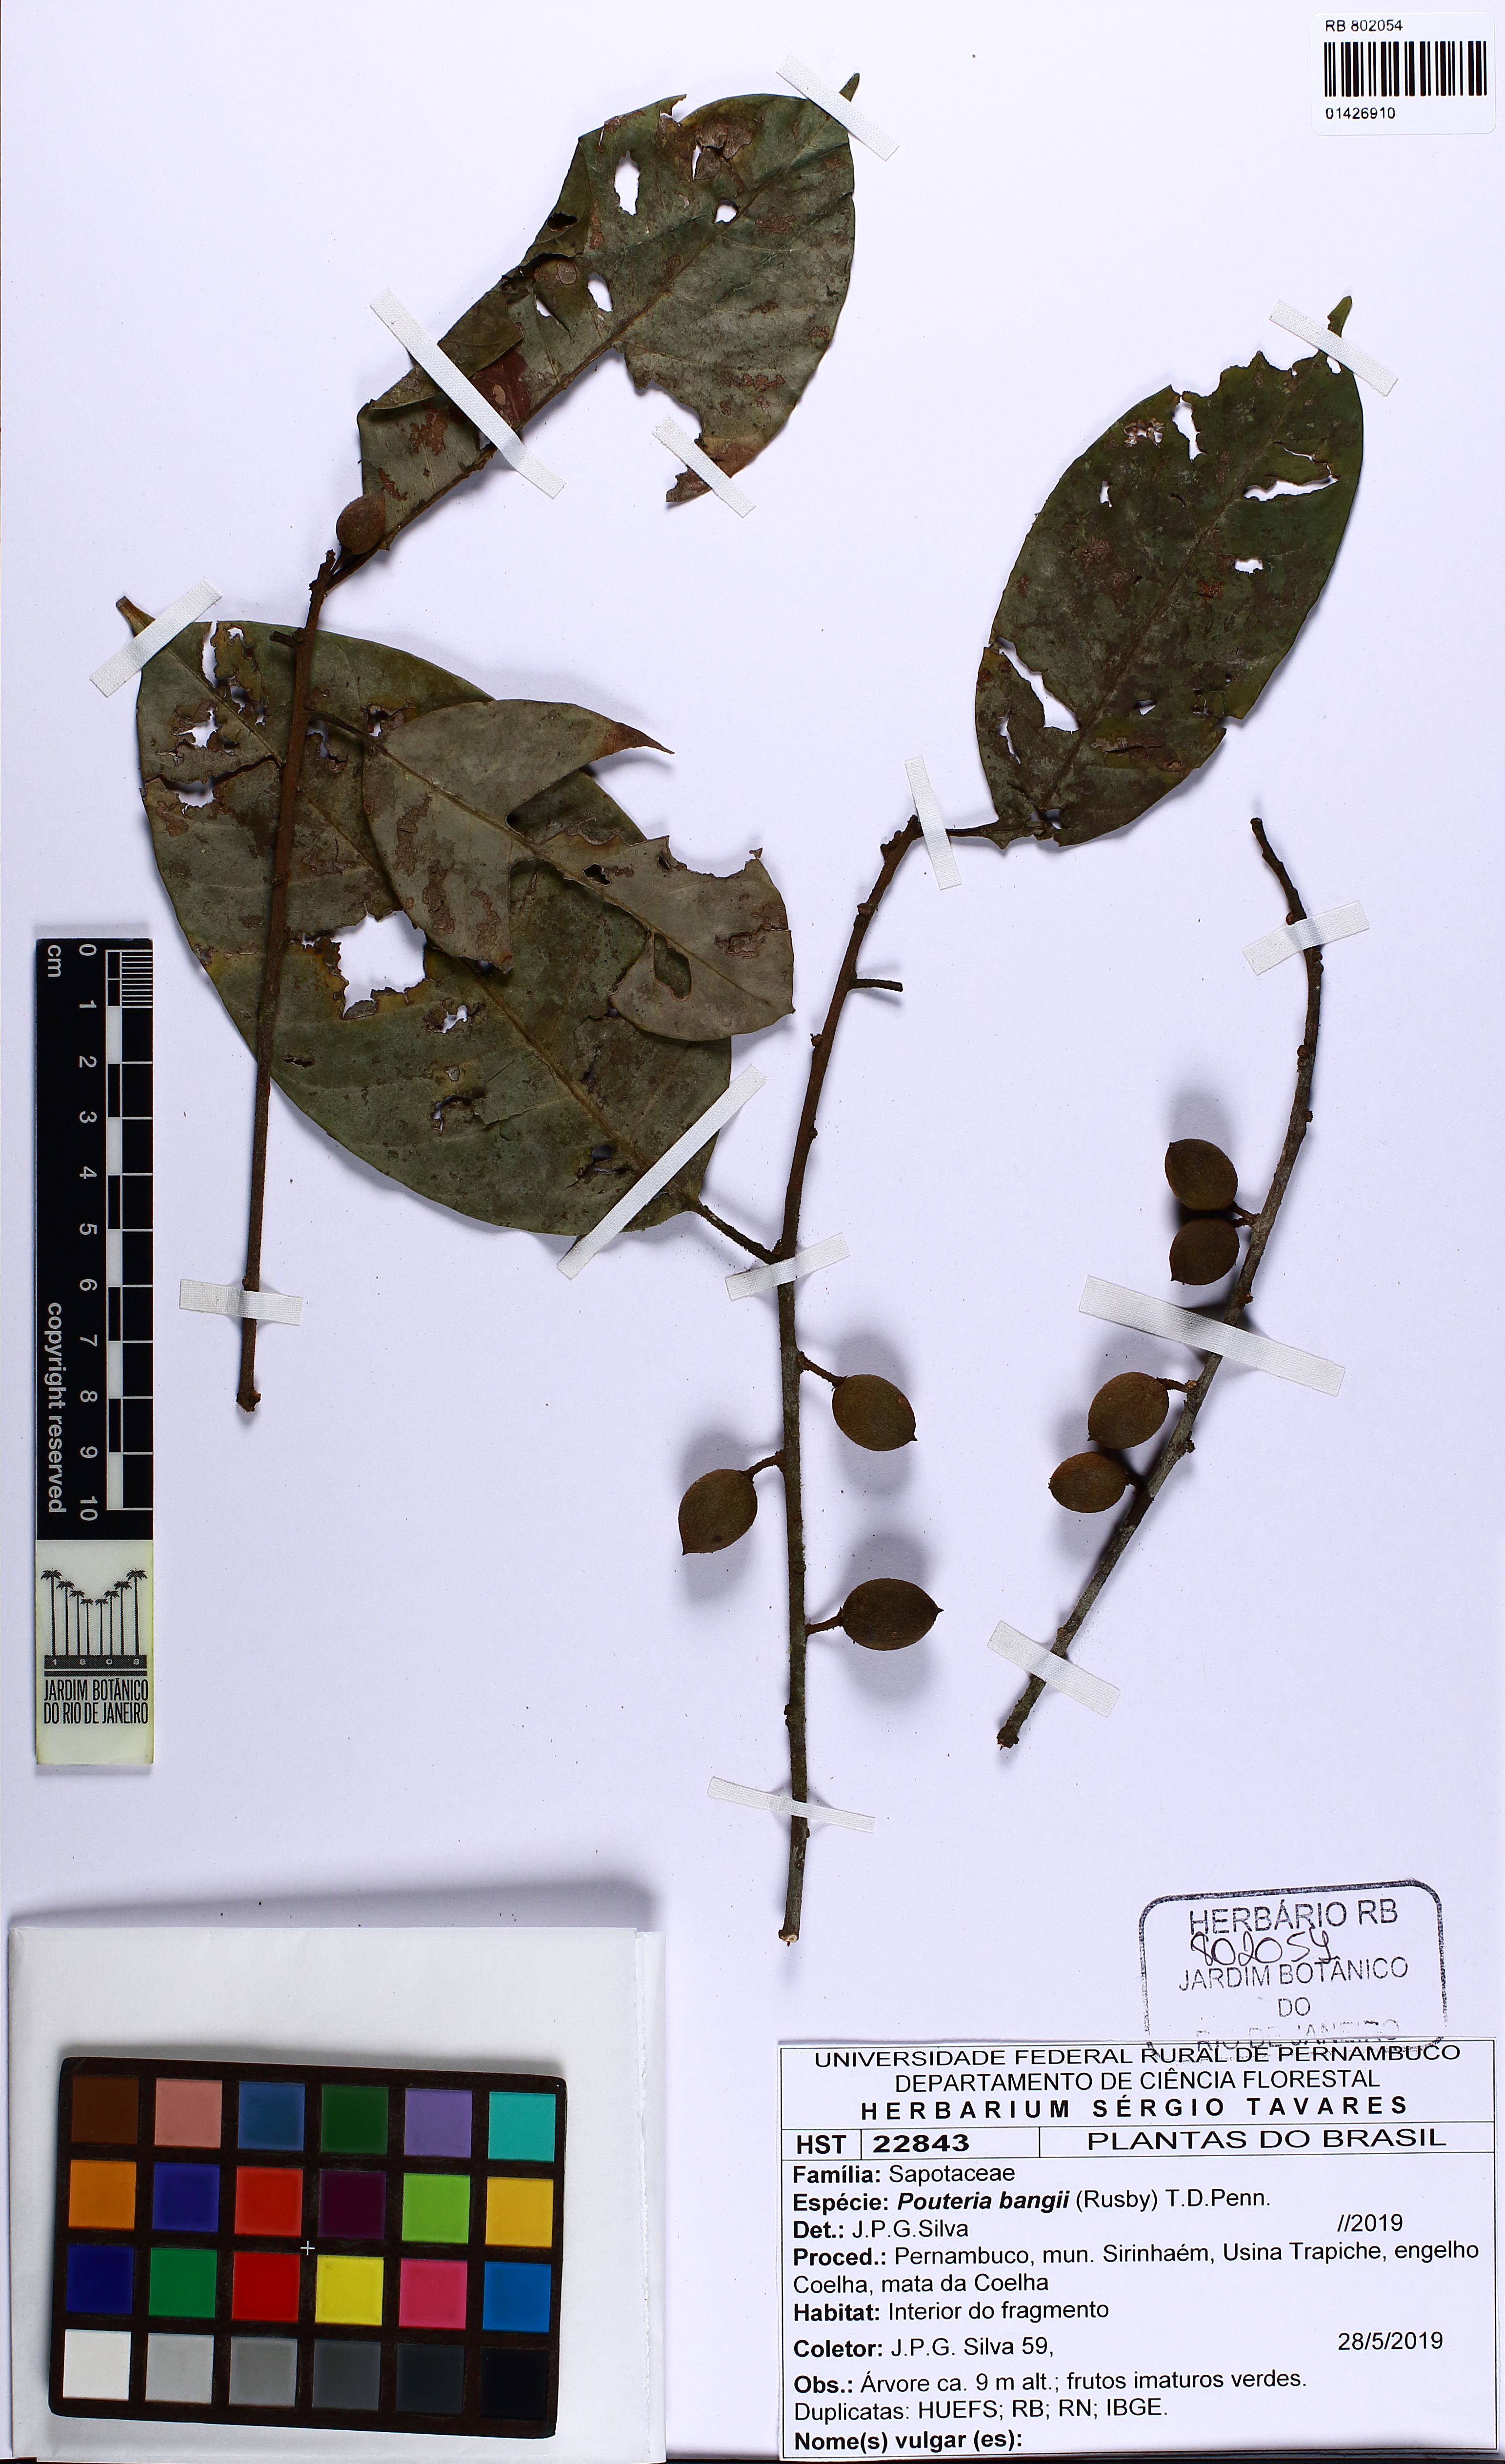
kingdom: Plantae
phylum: Tracheophyta
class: Magnoliopsida
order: Ericales
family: Sapotaceae
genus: Pouteria
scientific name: Pouteria bangii
